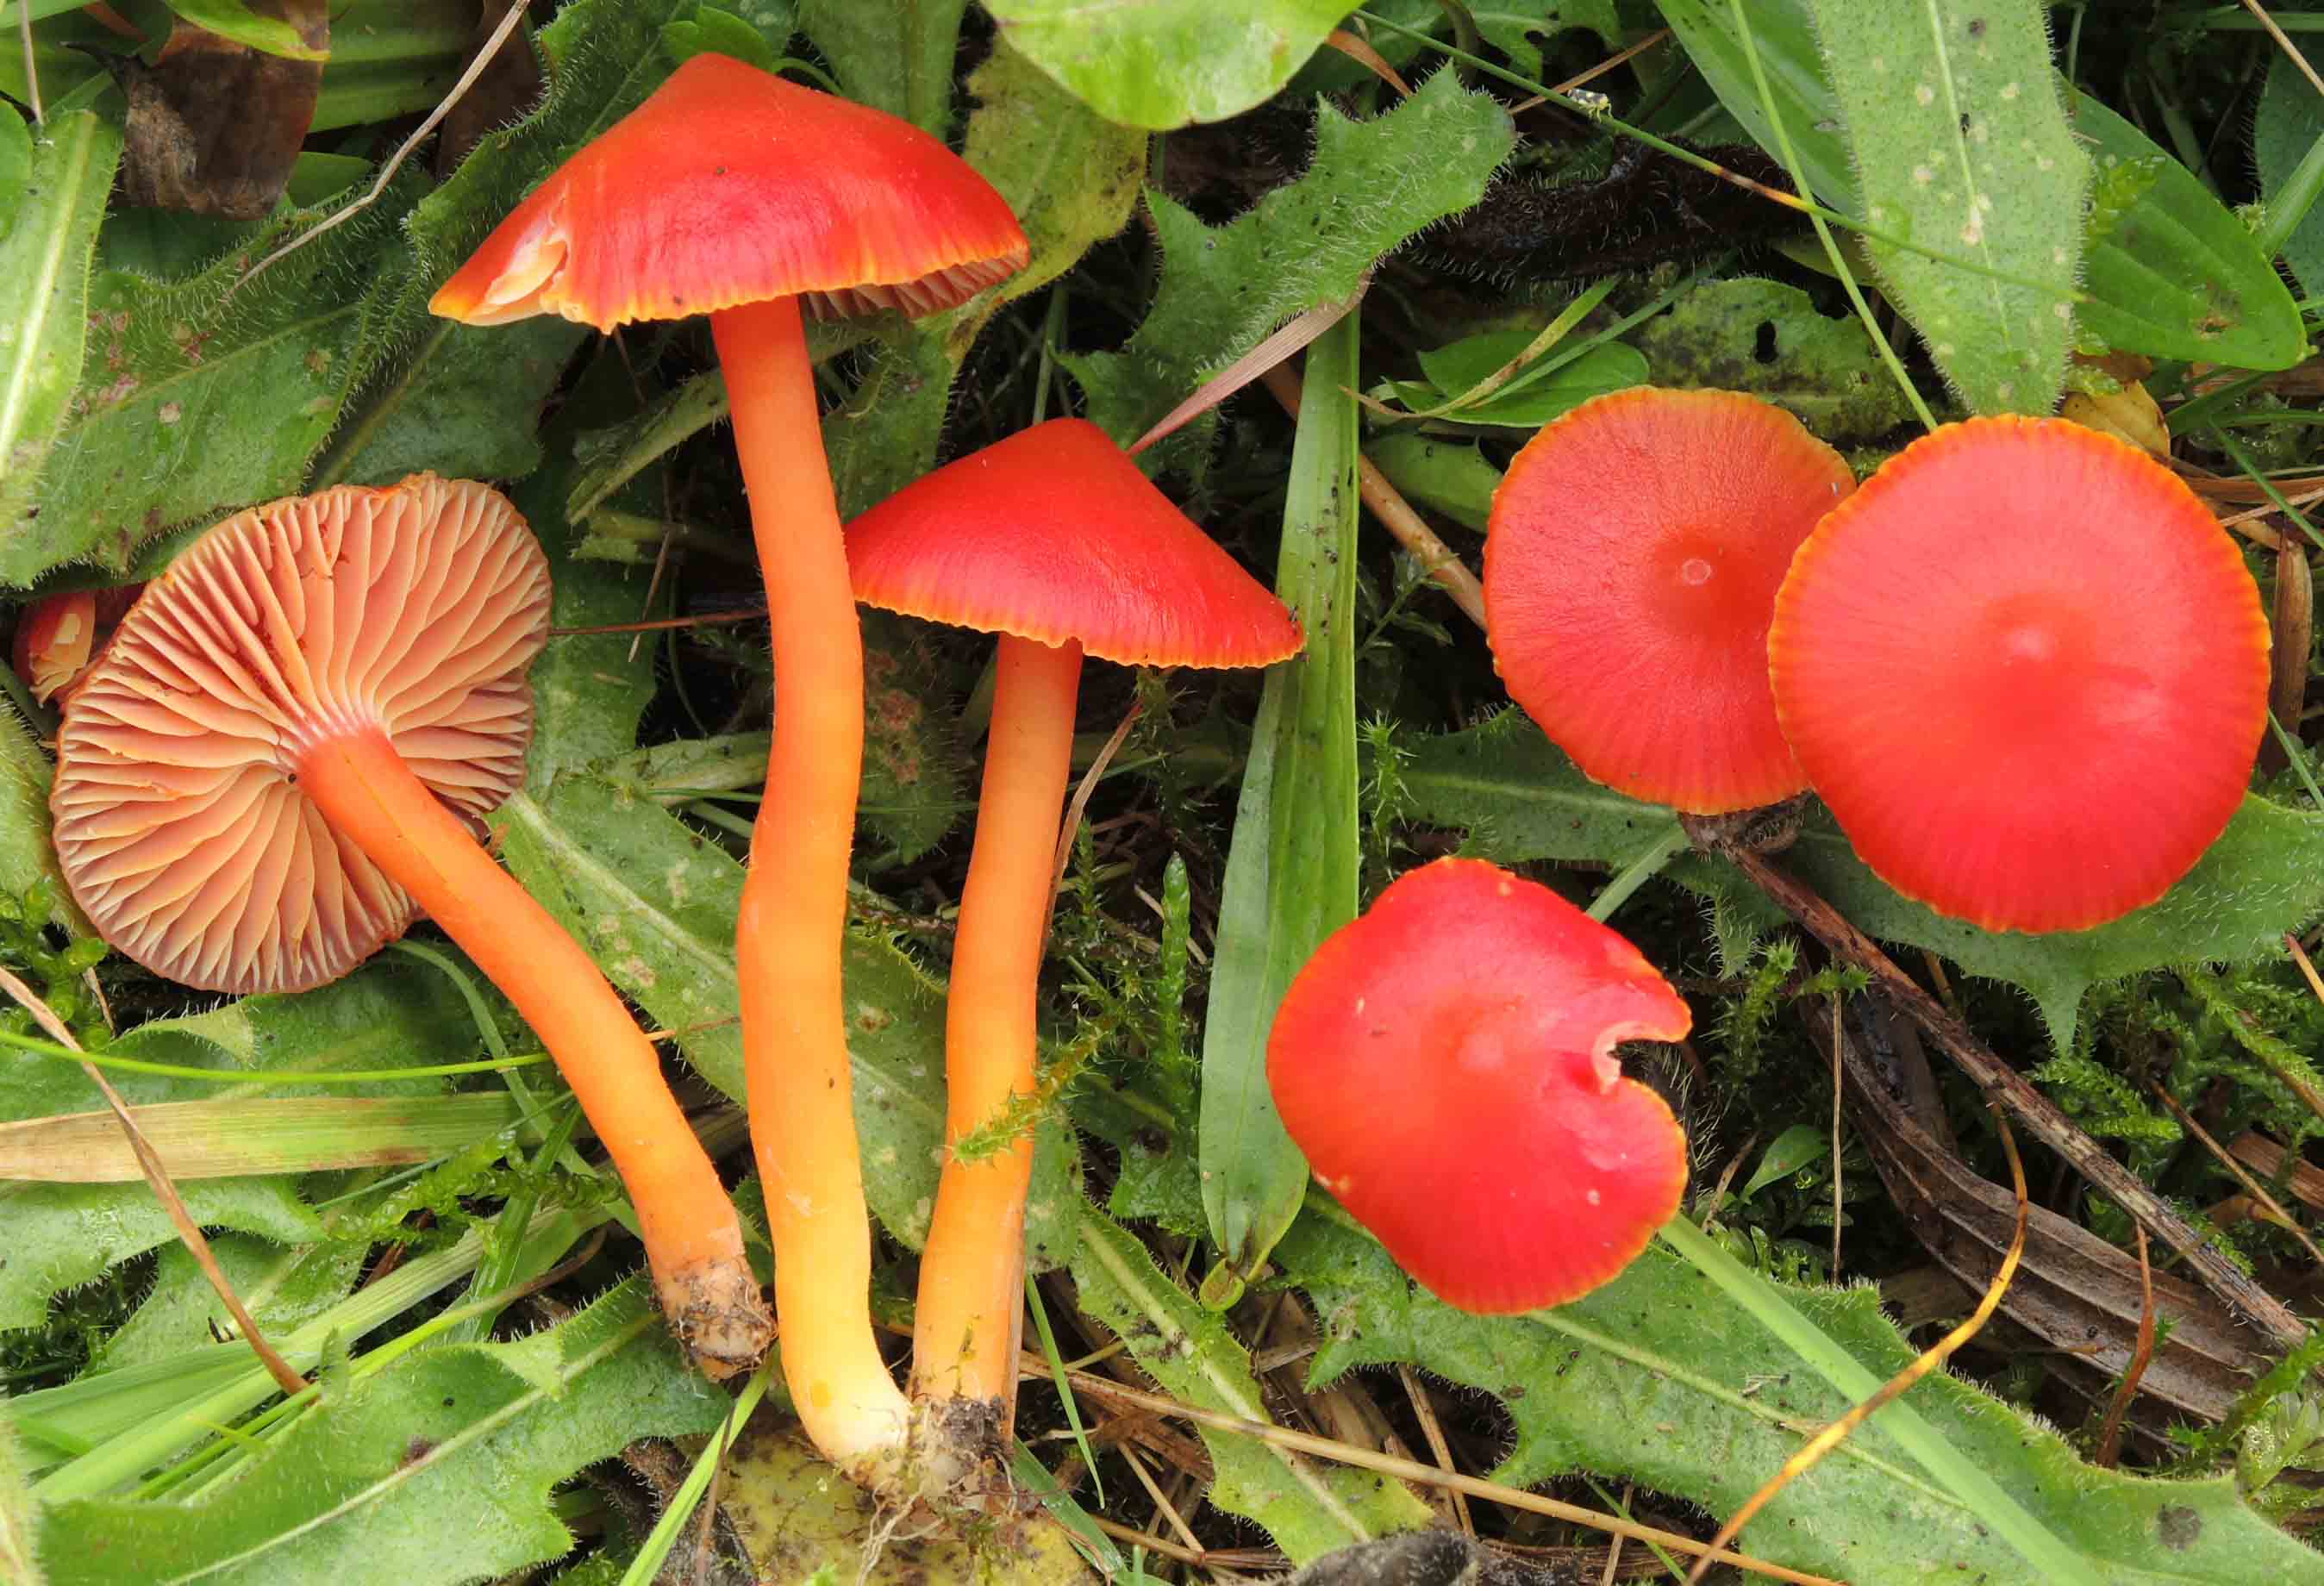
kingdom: Fungi
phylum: Basidiomycota
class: Agaricomycetes
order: Agaricales
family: Hygrophoraceae
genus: Hygrocybe
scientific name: Hygrocybe coccinea
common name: cinnober-vokshat
